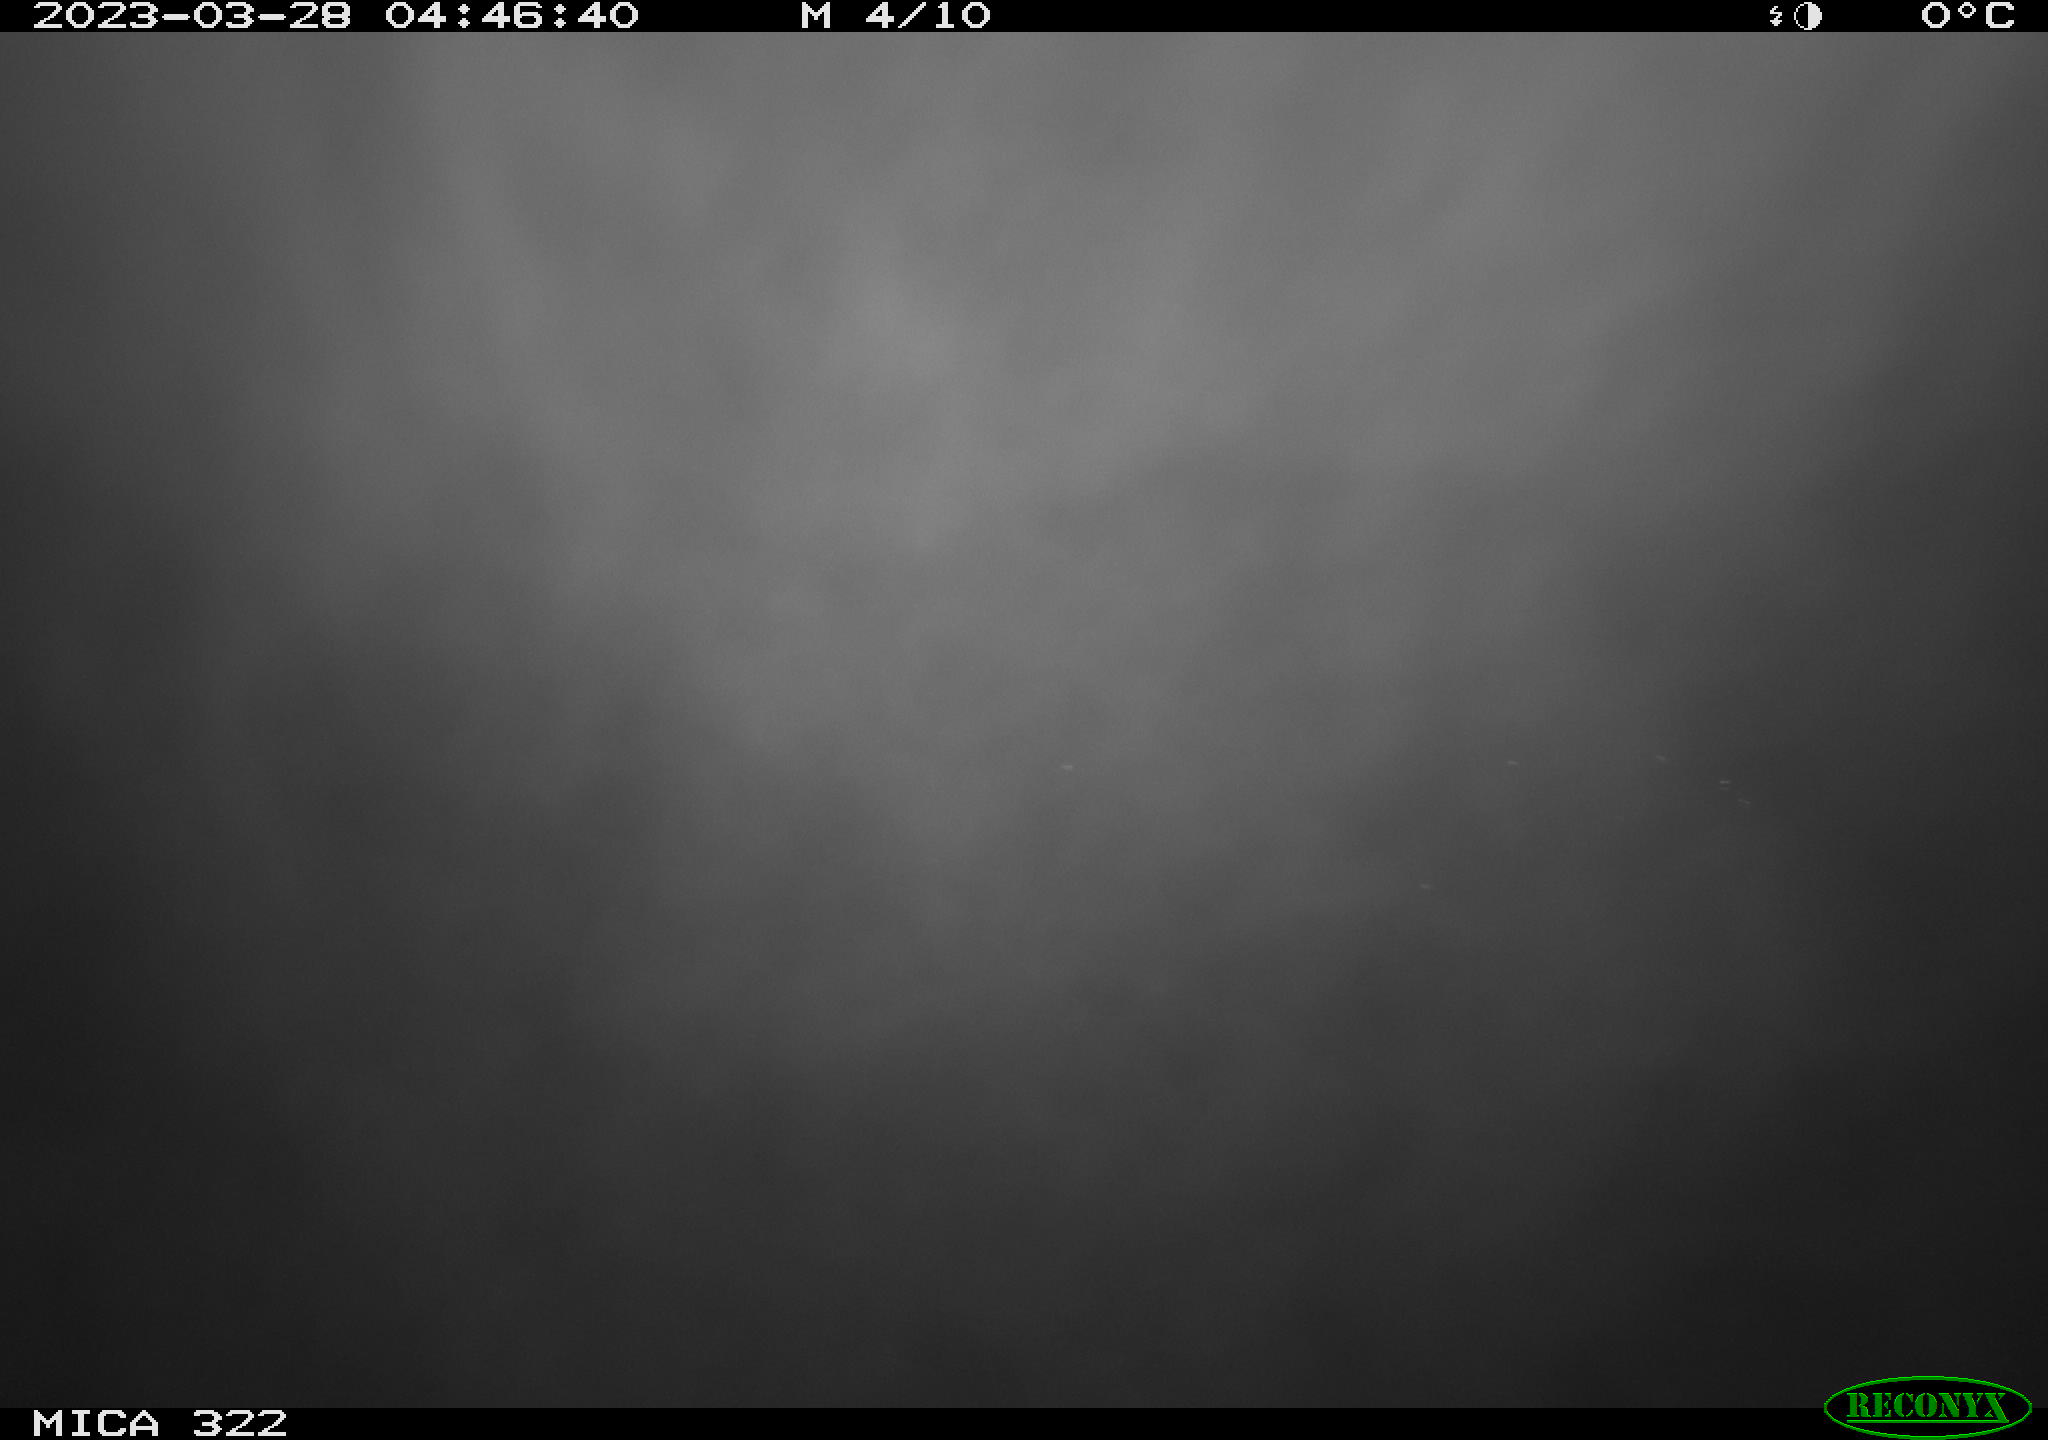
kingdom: Animalia
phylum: Chordata
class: Aves
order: Anseriformes
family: Anatidae
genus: Anas
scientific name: Anas
